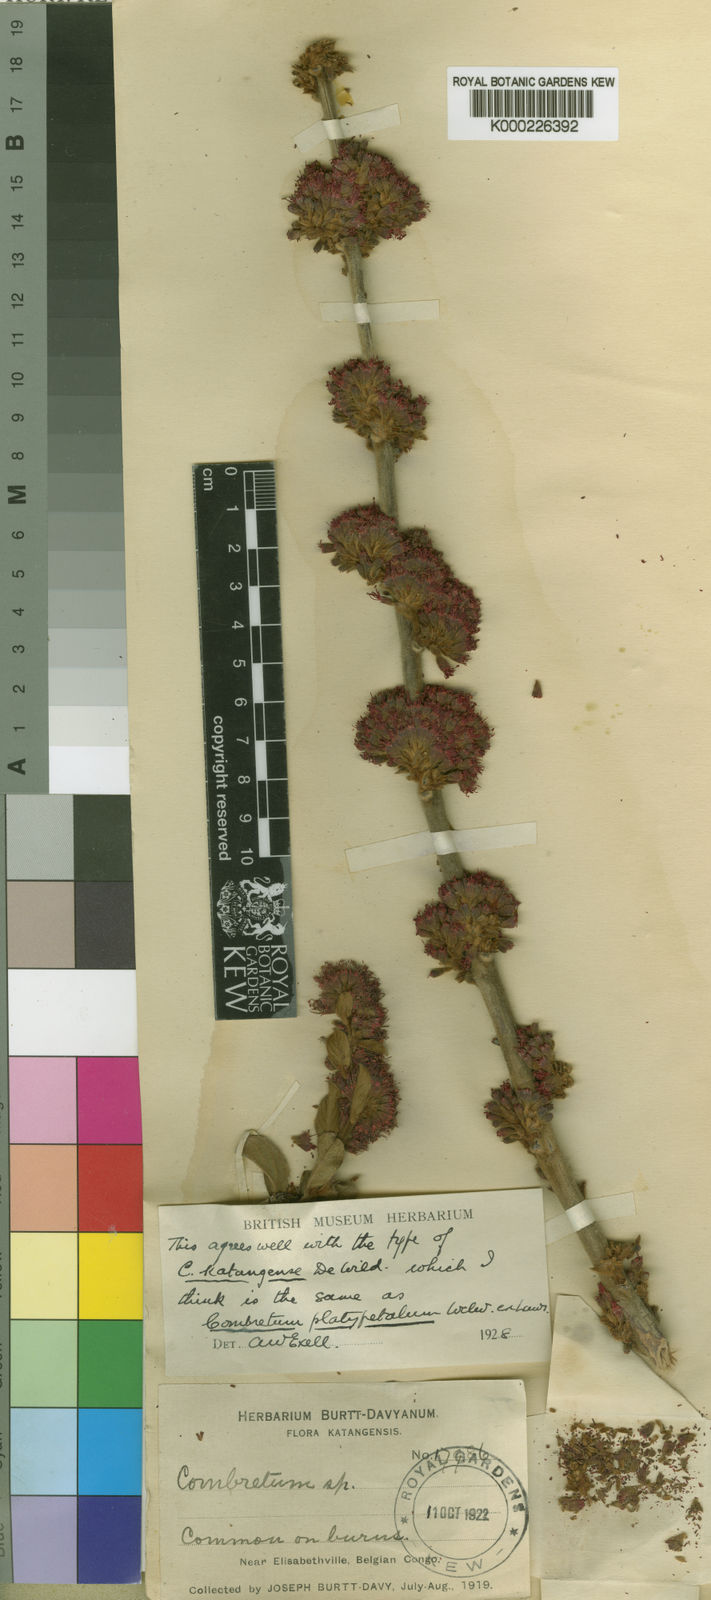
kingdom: Plantae
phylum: Tracheophyta
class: Magnoliopsida
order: Myrtales
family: Combretaceae
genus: Combretum
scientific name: Combretum
